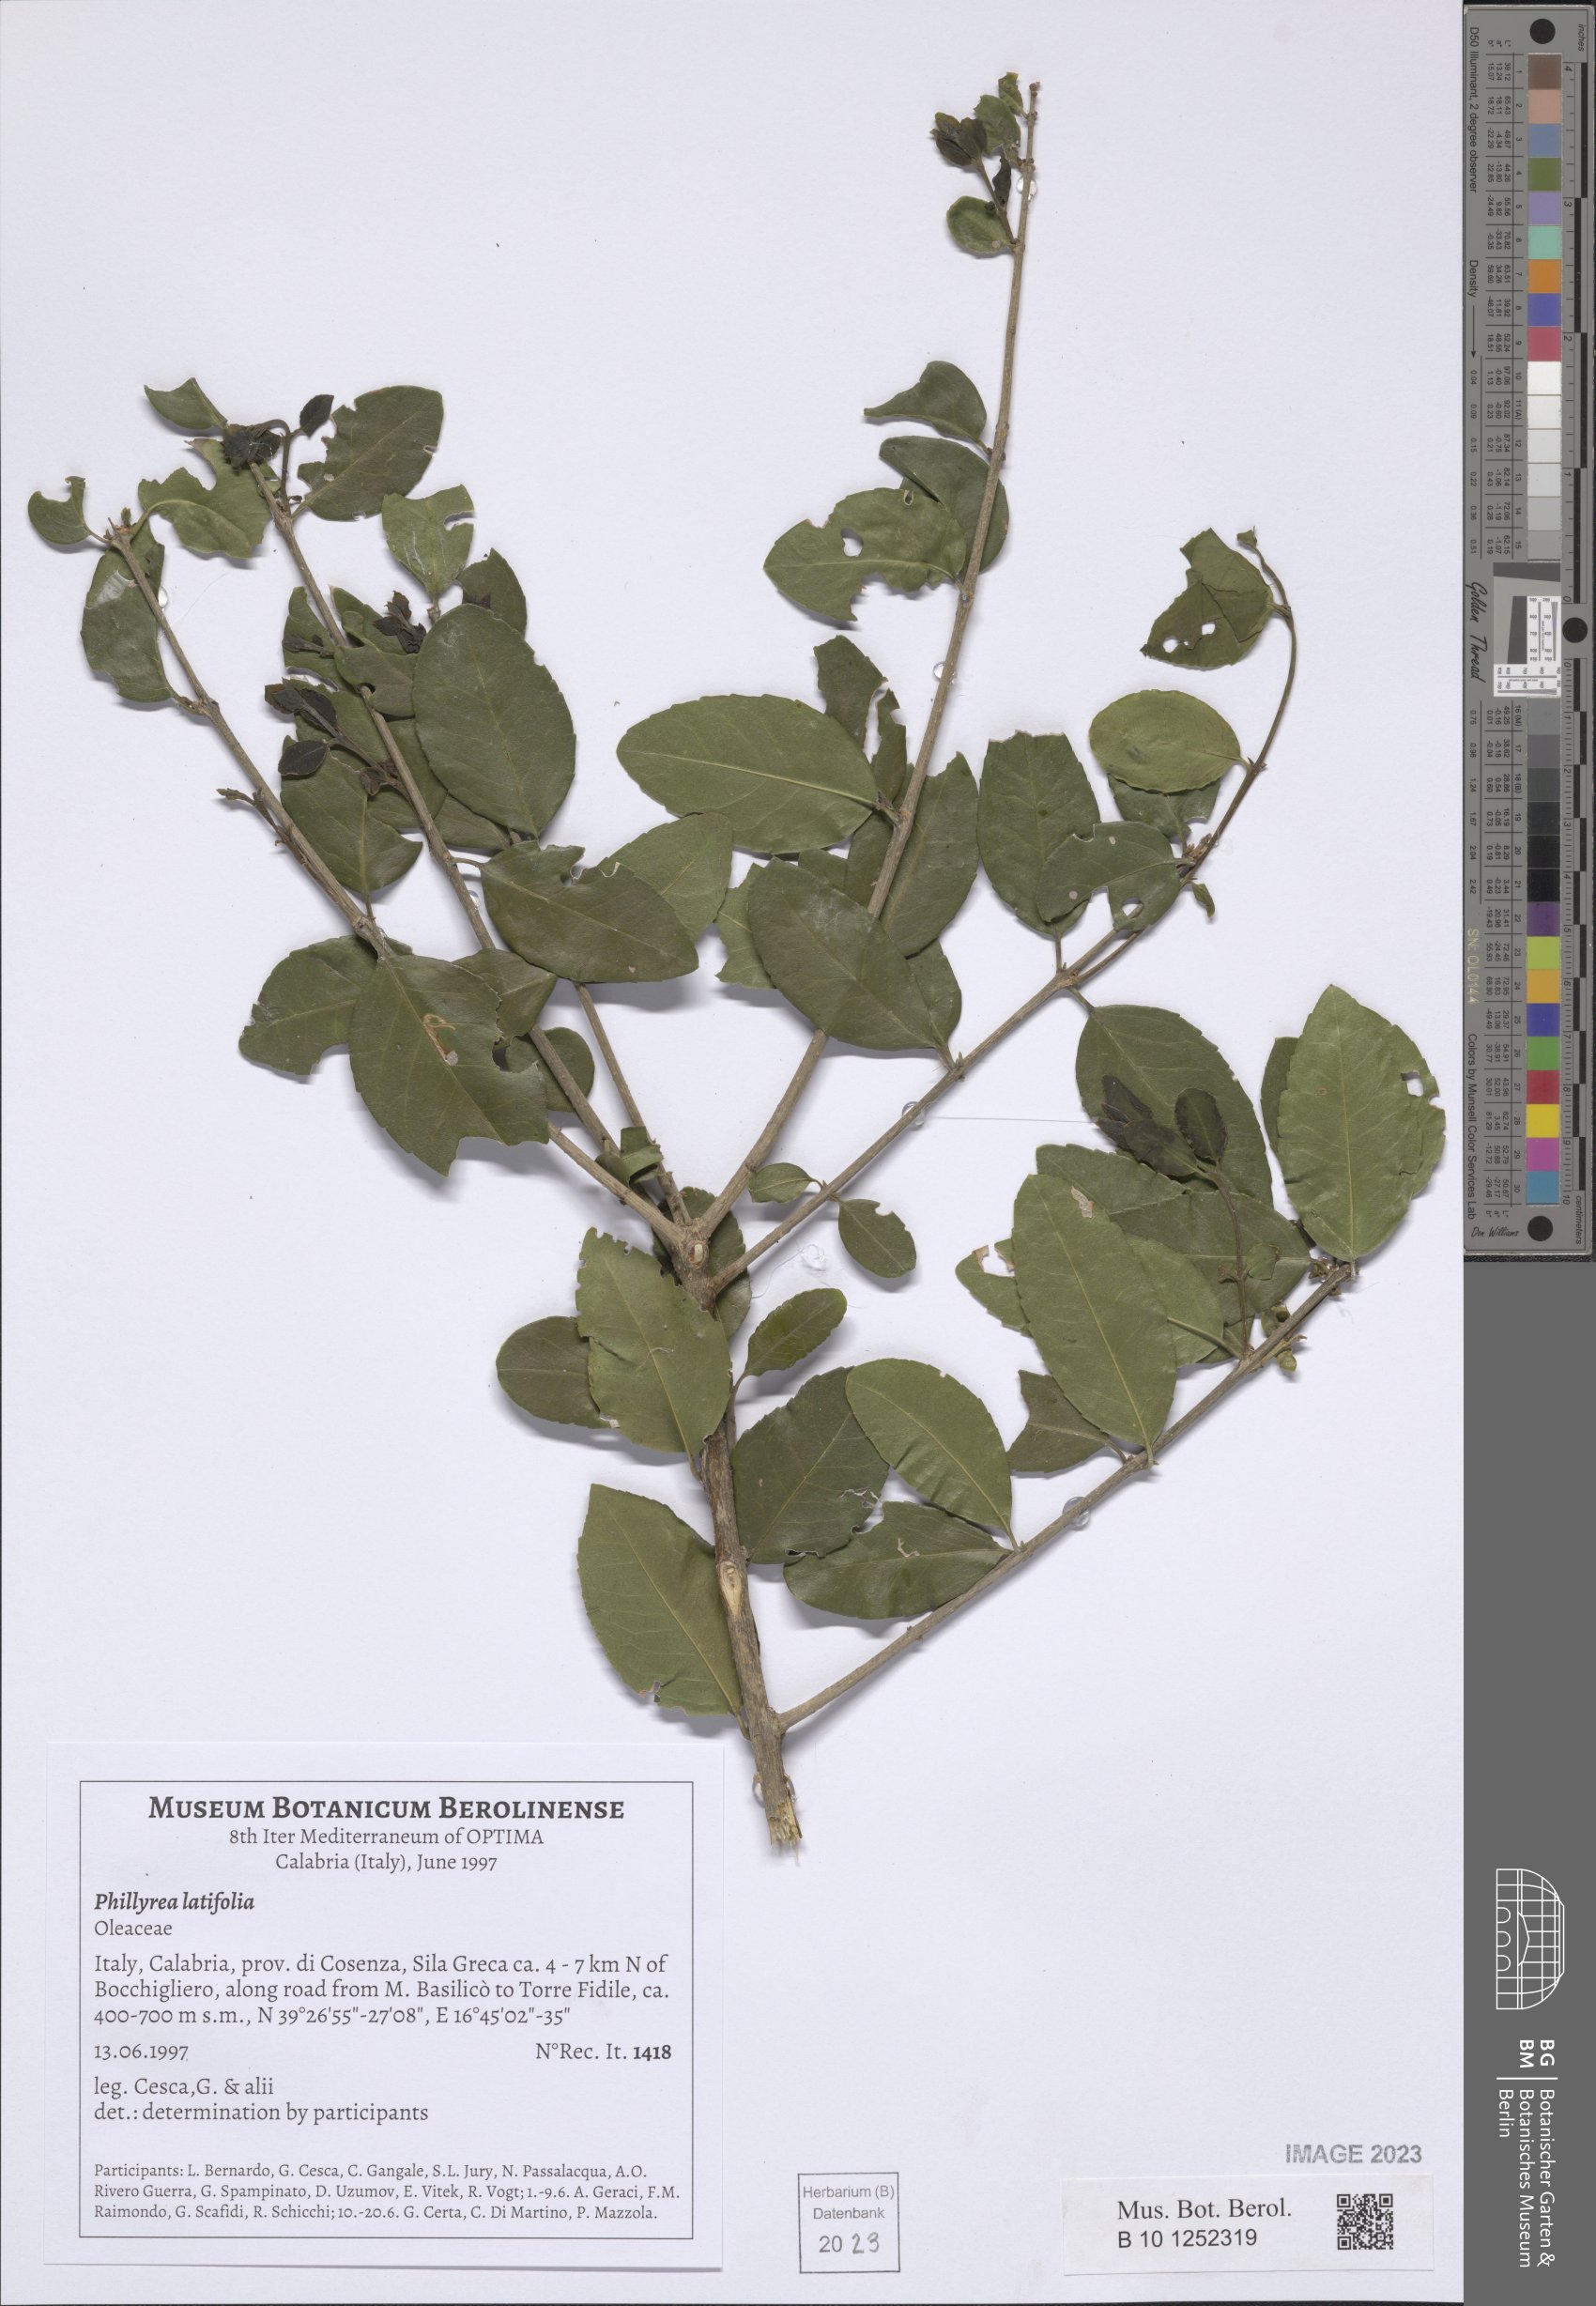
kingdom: Plantae
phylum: Tracheophyta
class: Magnoliopsida
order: Lamiales
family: Oleaceae
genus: Phillyrea
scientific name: Phillyrea latifolia
